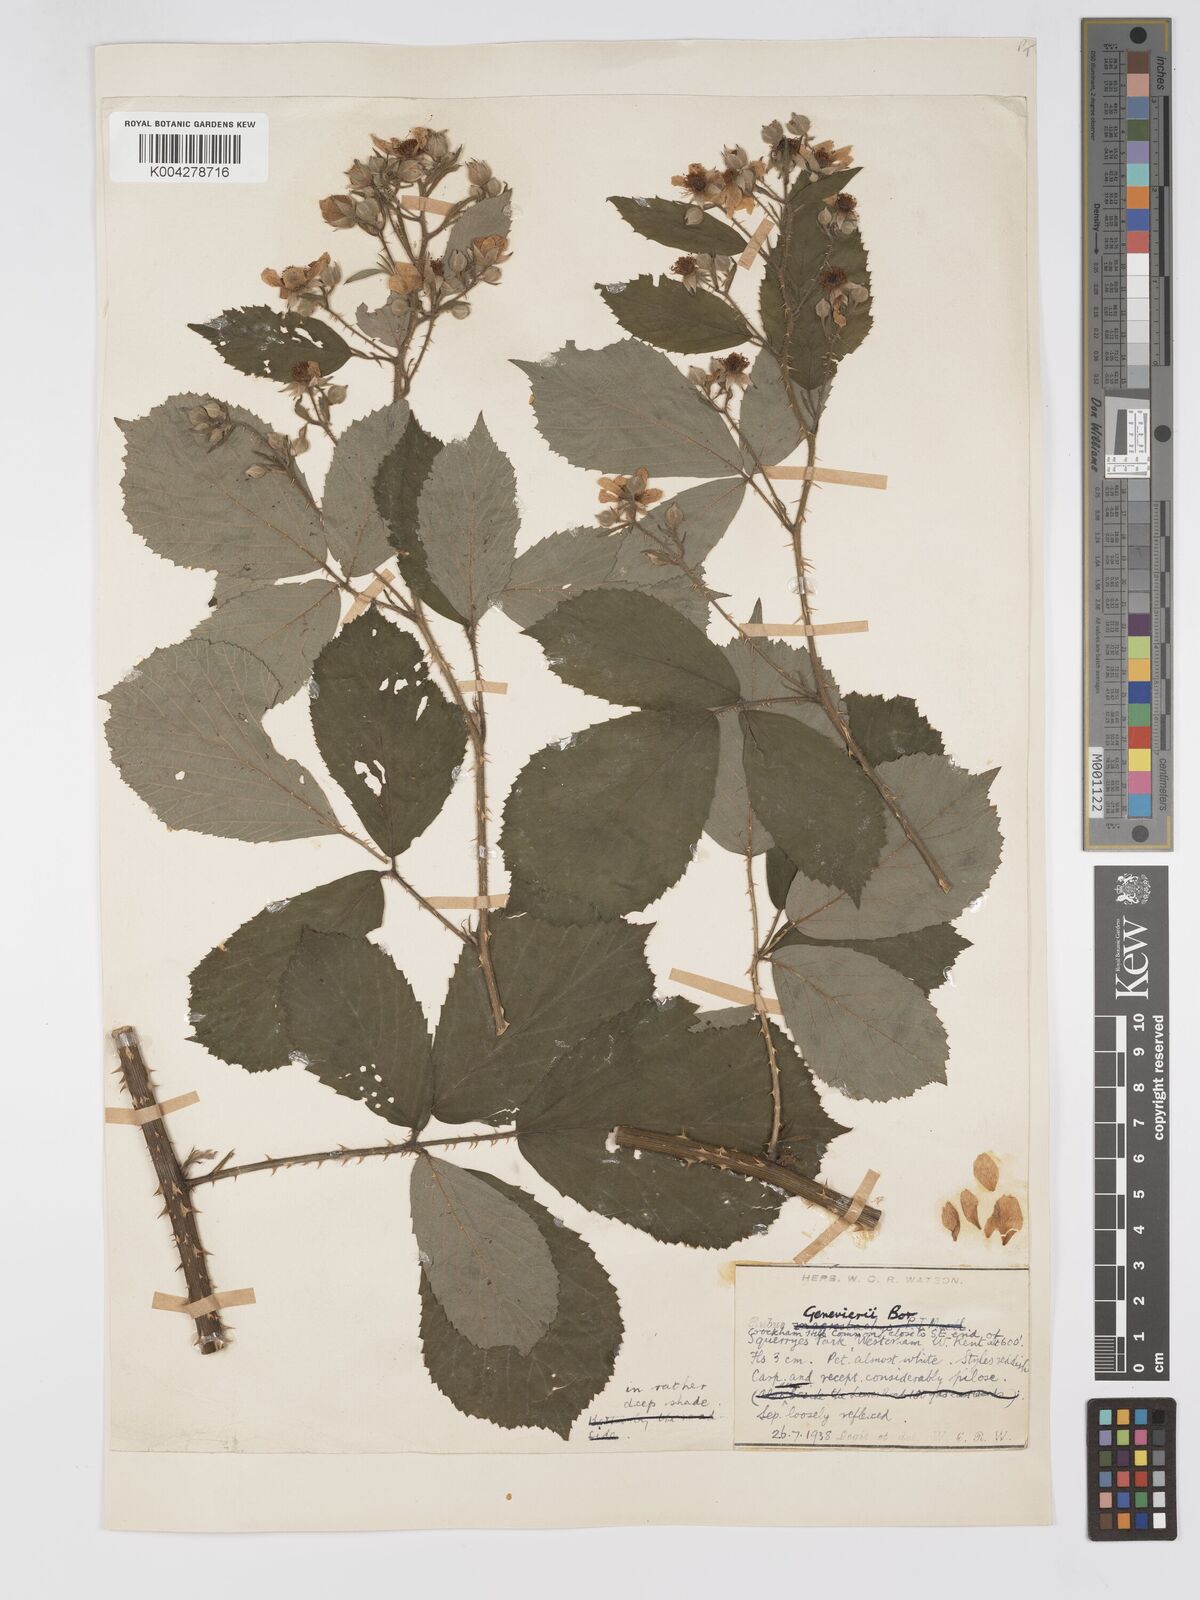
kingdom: Plantae
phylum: Tracheophyta
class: Magnoliopsida
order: Rosales
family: Rosaceae
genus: Rubus
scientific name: Rubus
